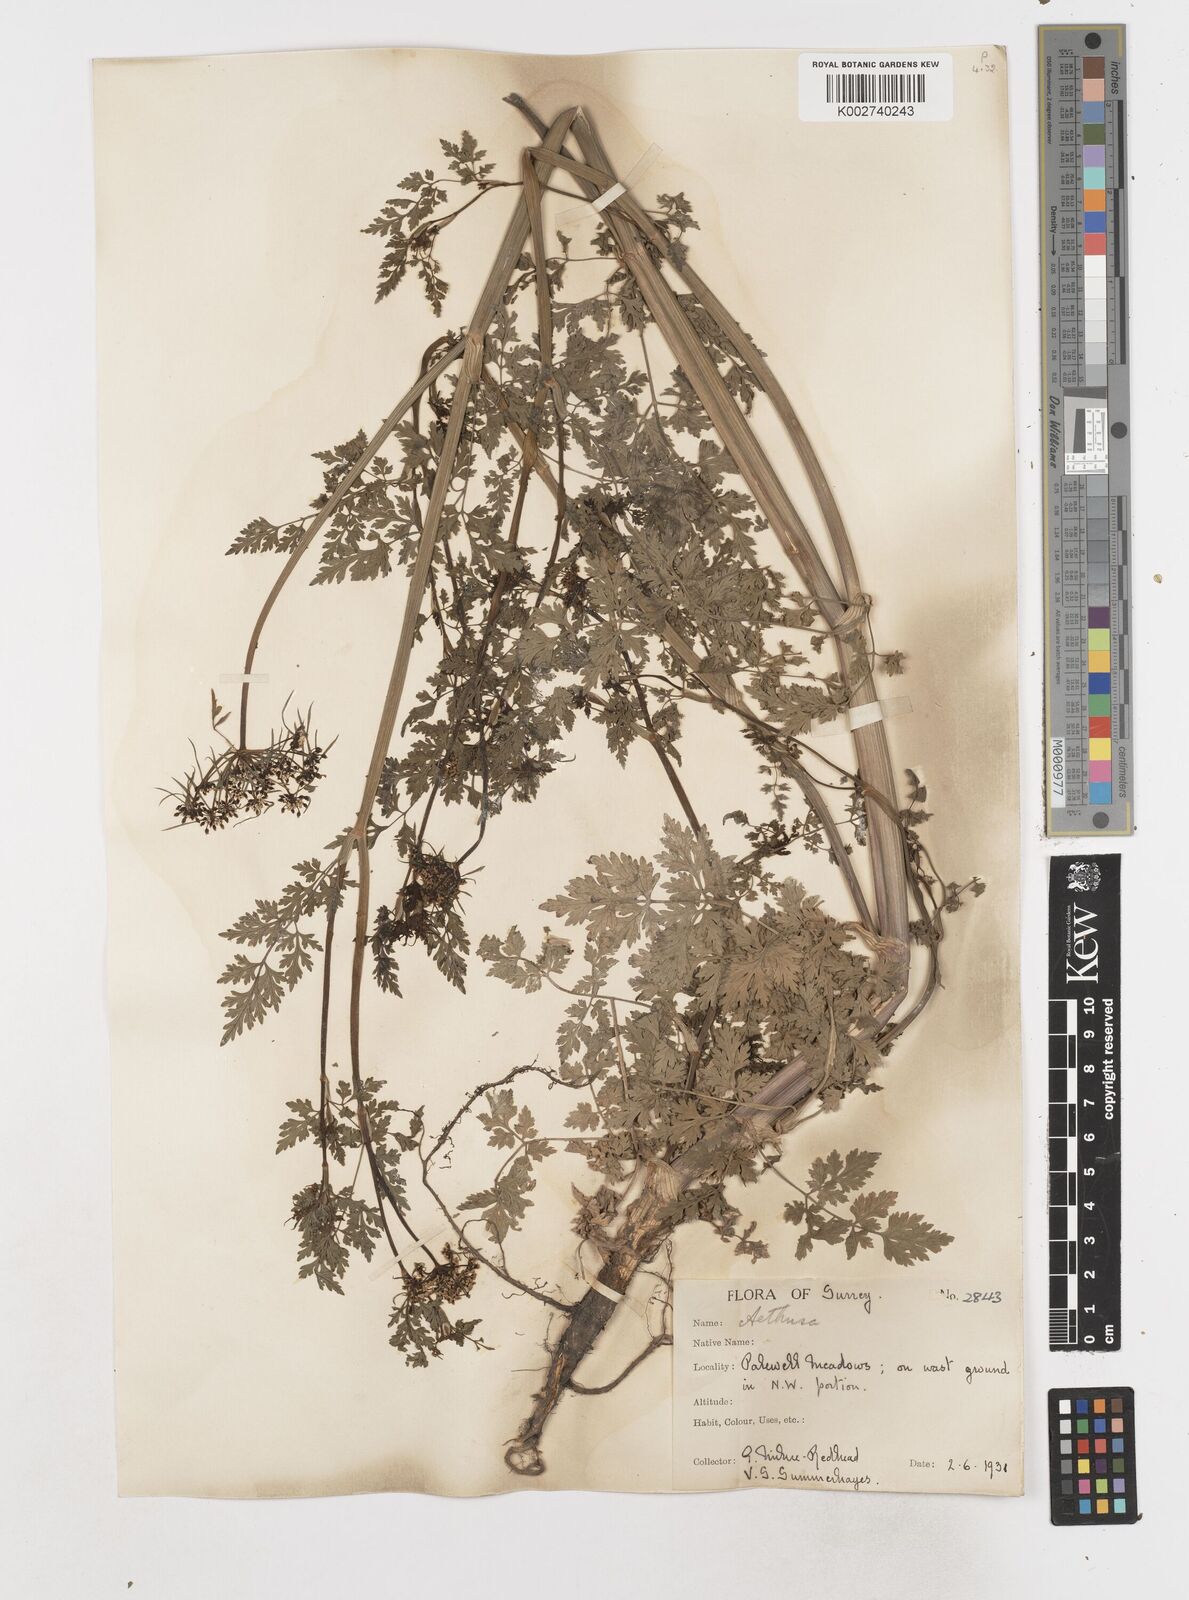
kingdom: Plantae
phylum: Tracheophyta
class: Magnoliopsida
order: Apiales
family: Apiaceae
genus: Aethusa
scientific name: Aethusa cynapium
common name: Fool's parsley
